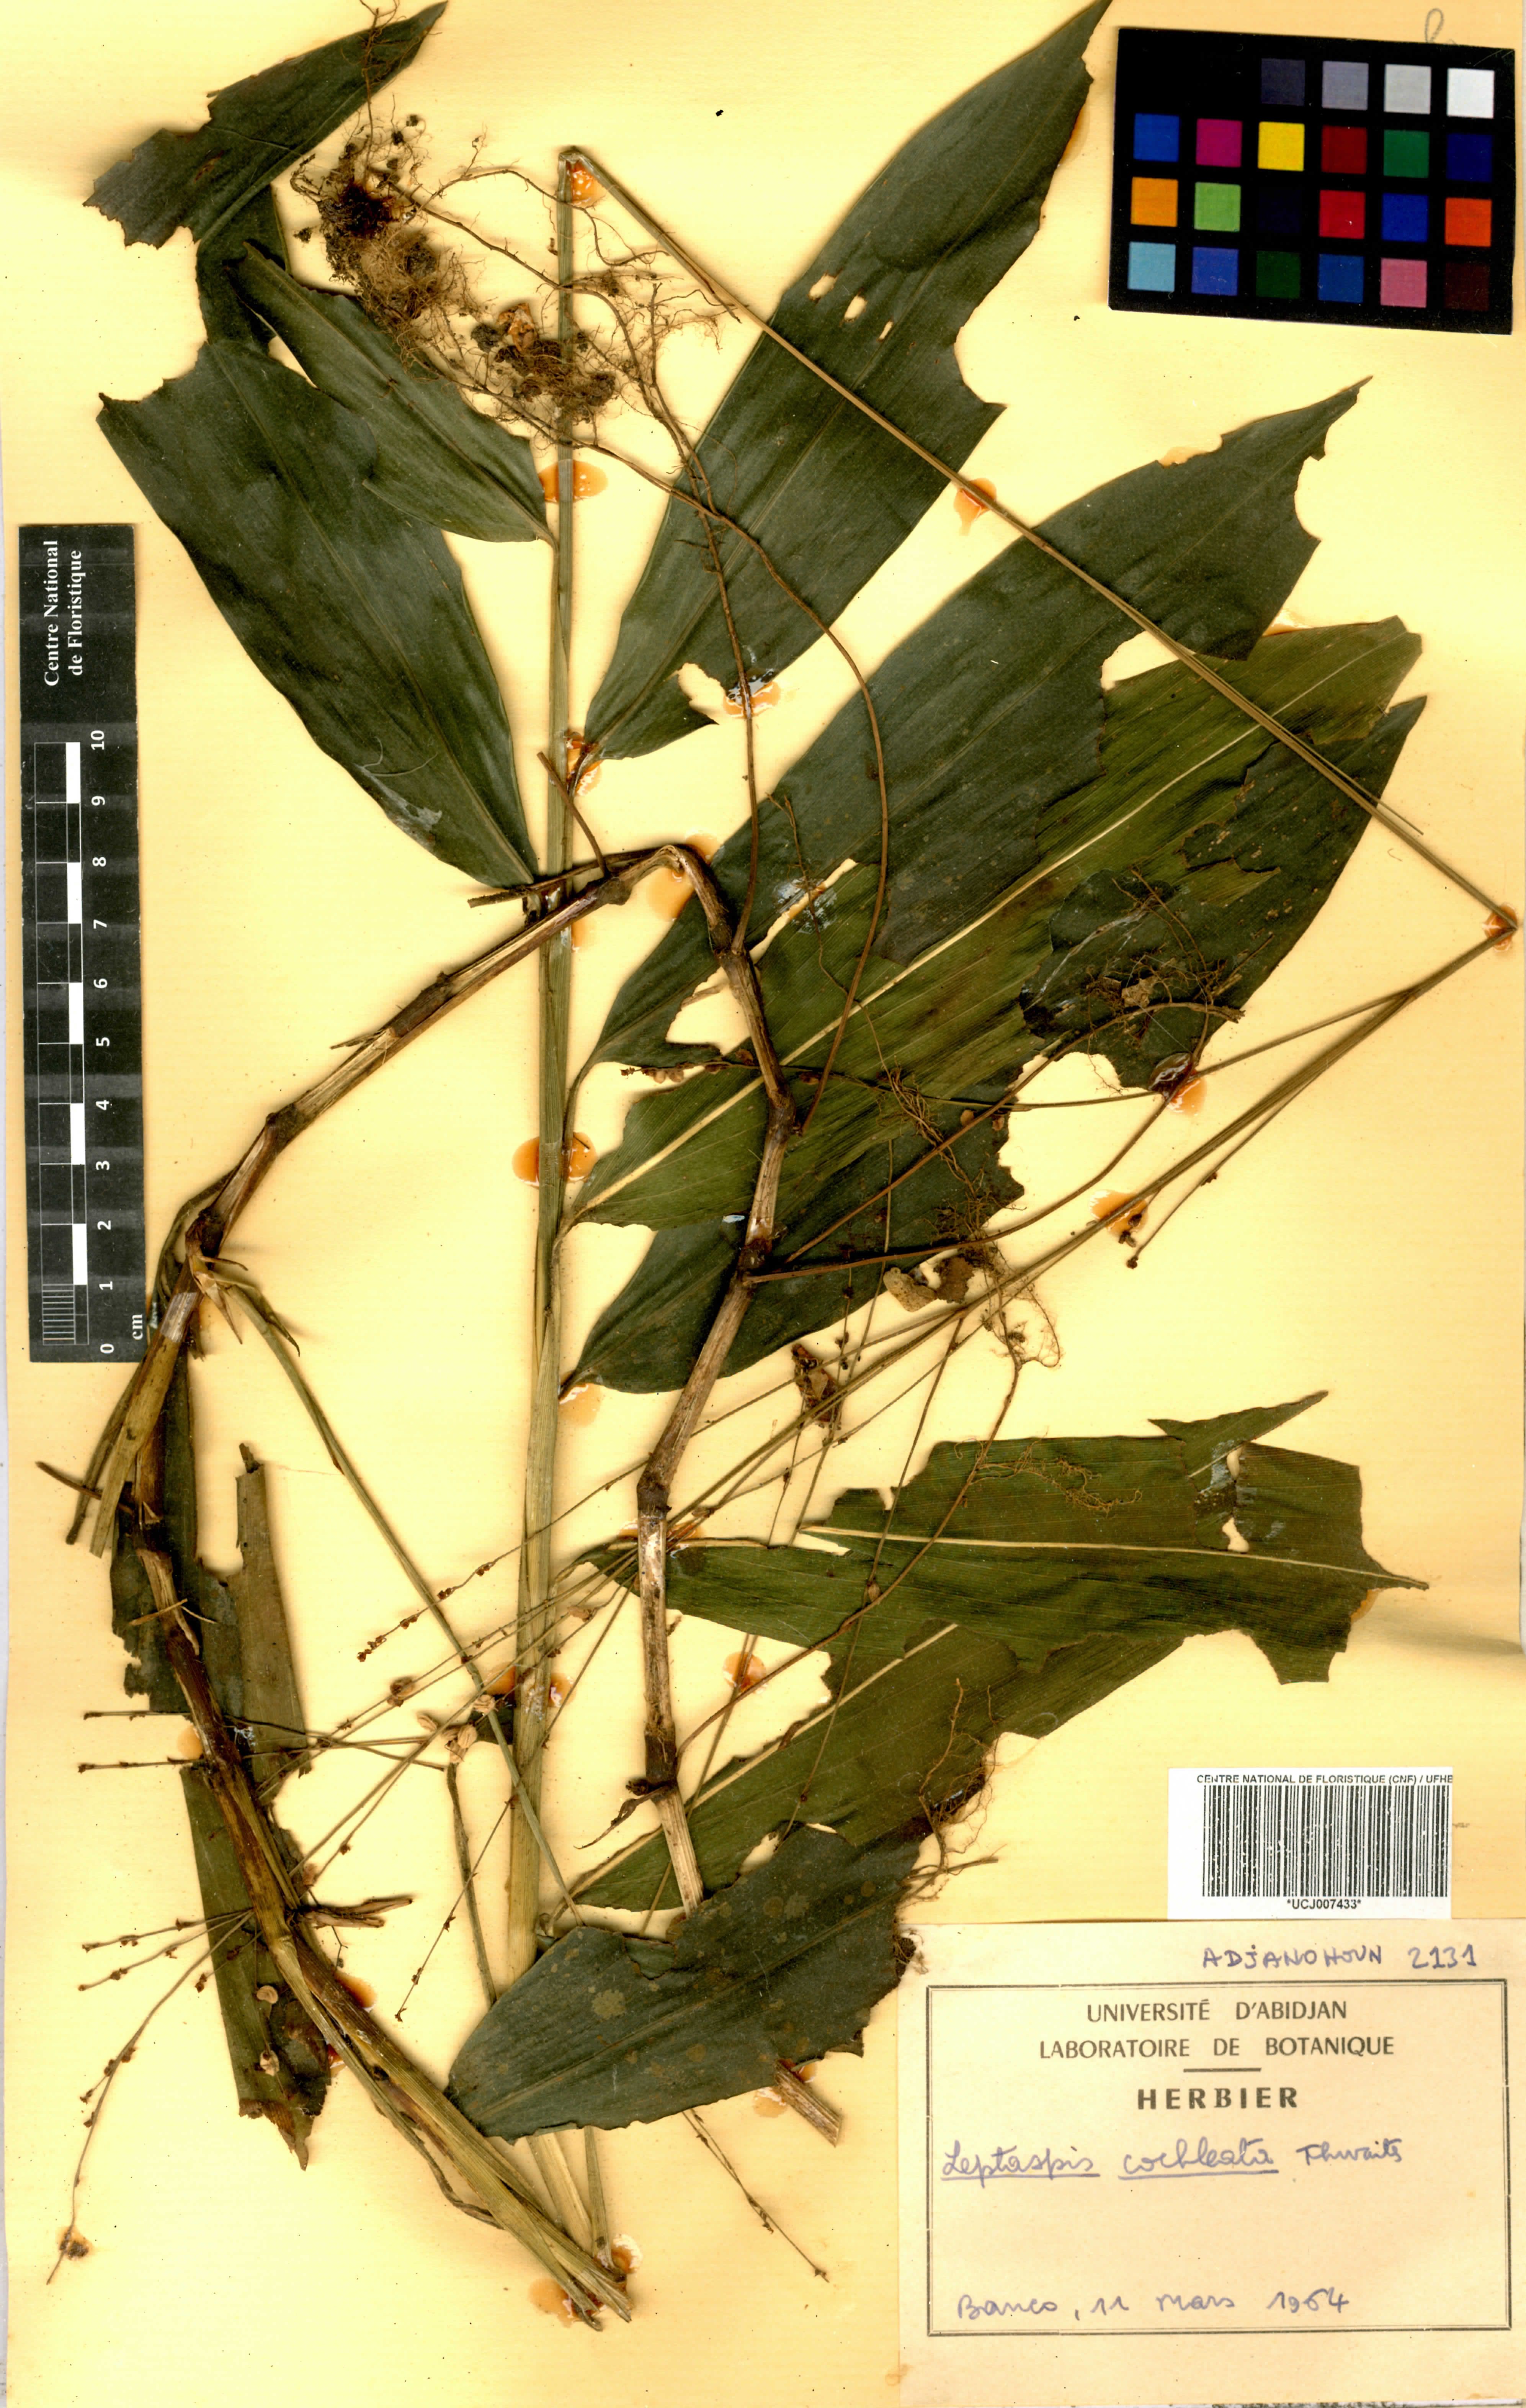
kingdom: Plantae
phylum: Tracheophyta
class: Liliopsida
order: Poales
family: Poaceae
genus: Leptaspis
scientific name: Leptaspis zeylanica
